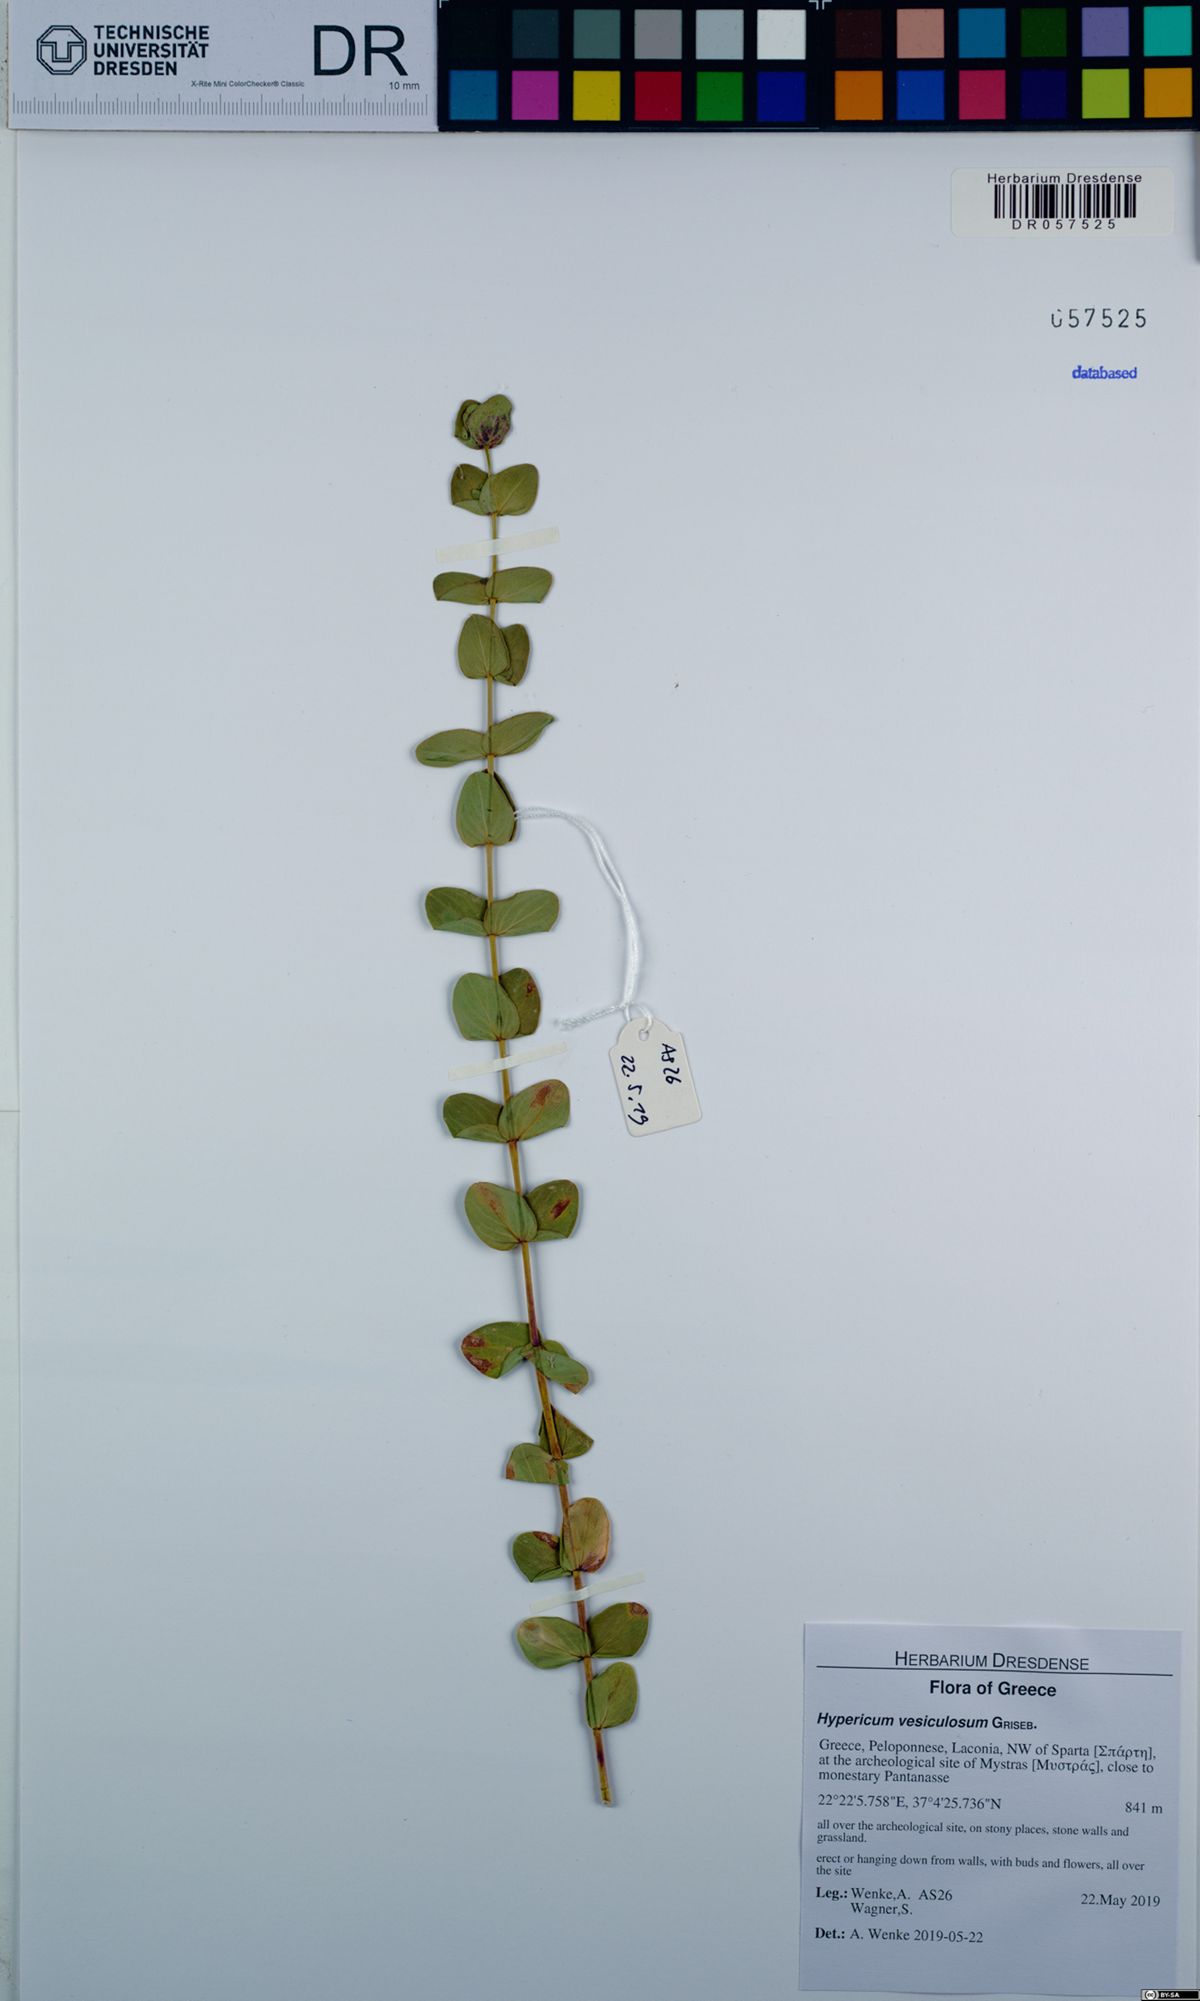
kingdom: Plantae
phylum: Tracheophyta
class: Magnoliopsida
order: Malpighiales
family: Hypericaceae
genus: Hypericum
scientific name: Hypericum vesiculosum
